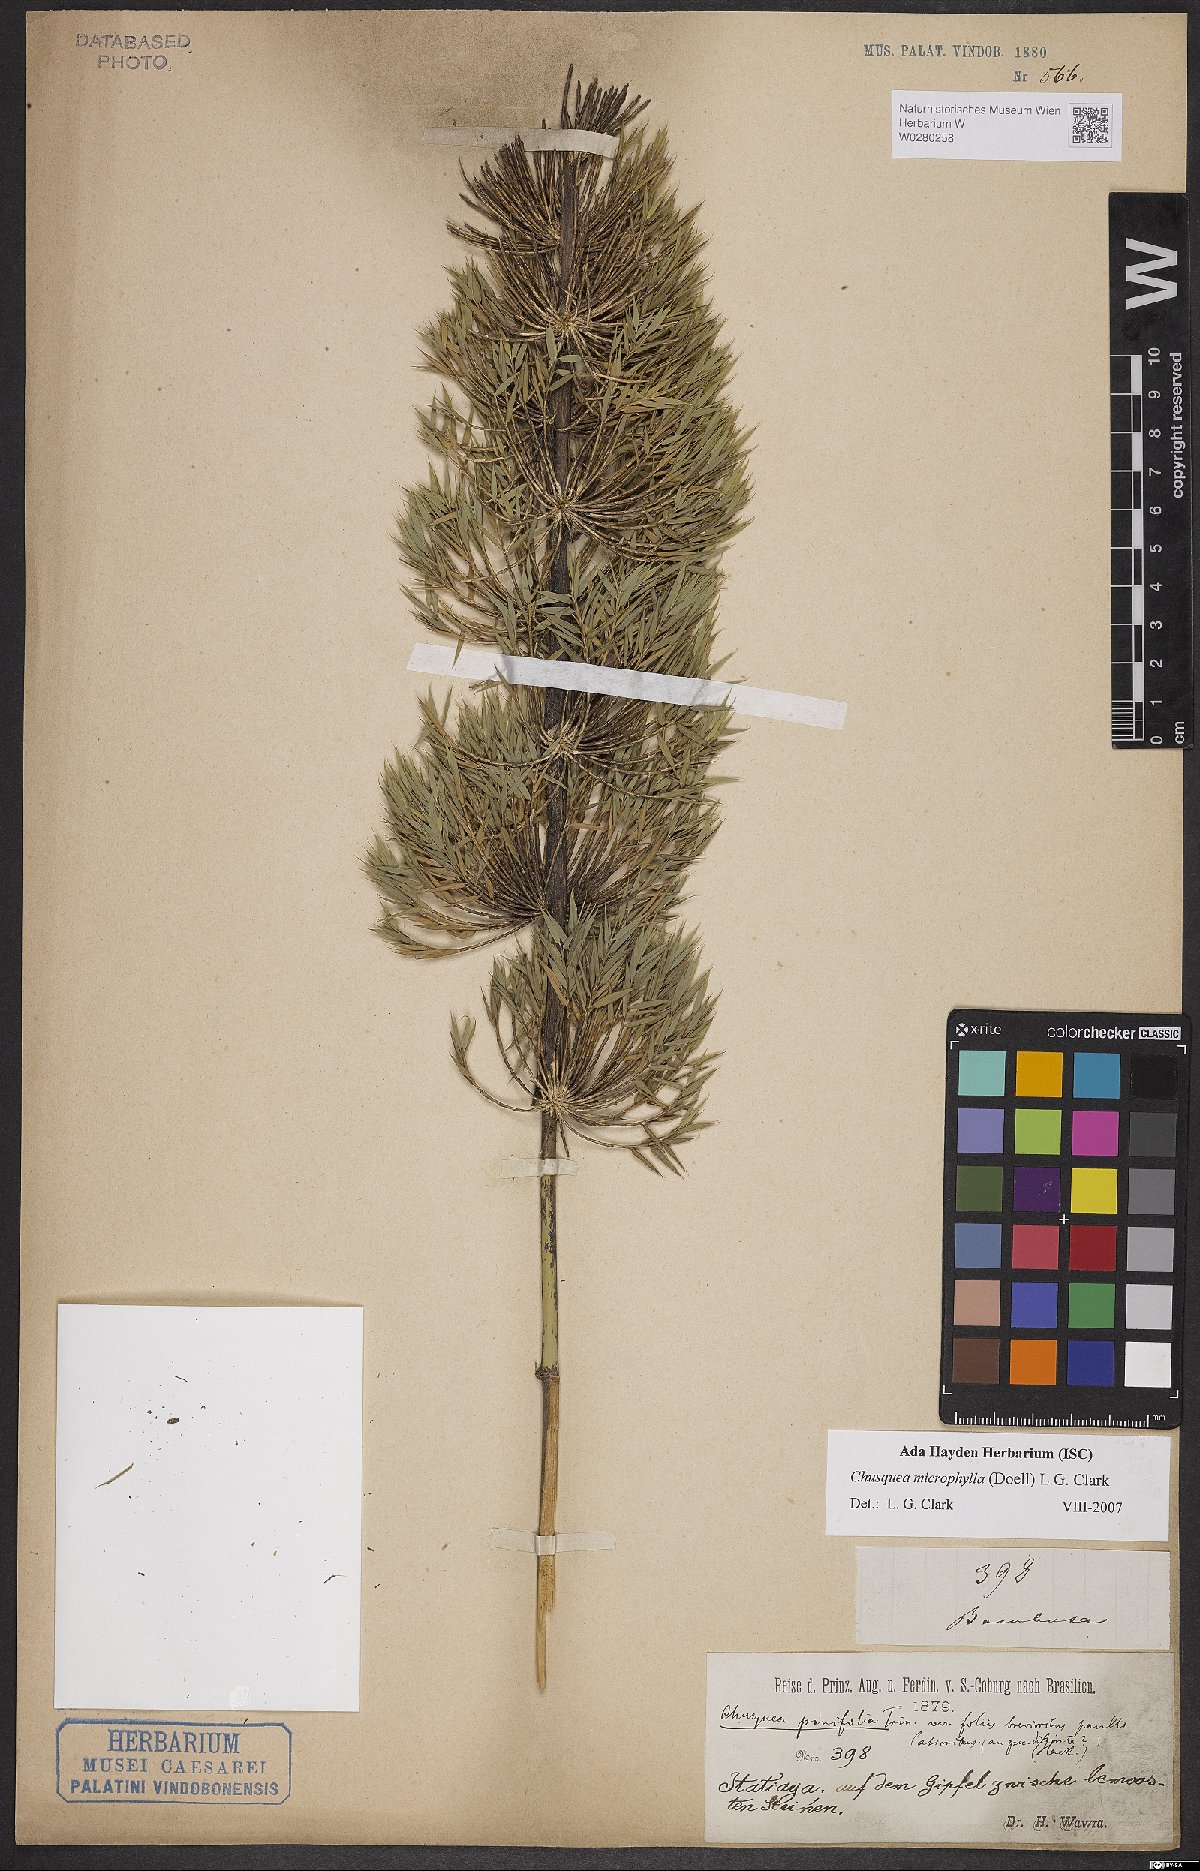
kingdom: Plantae
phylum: Tracheophyta
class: Liliopsida
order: Poales
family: Poaceae
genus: Chusquea
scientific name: Chusquea microphylla
